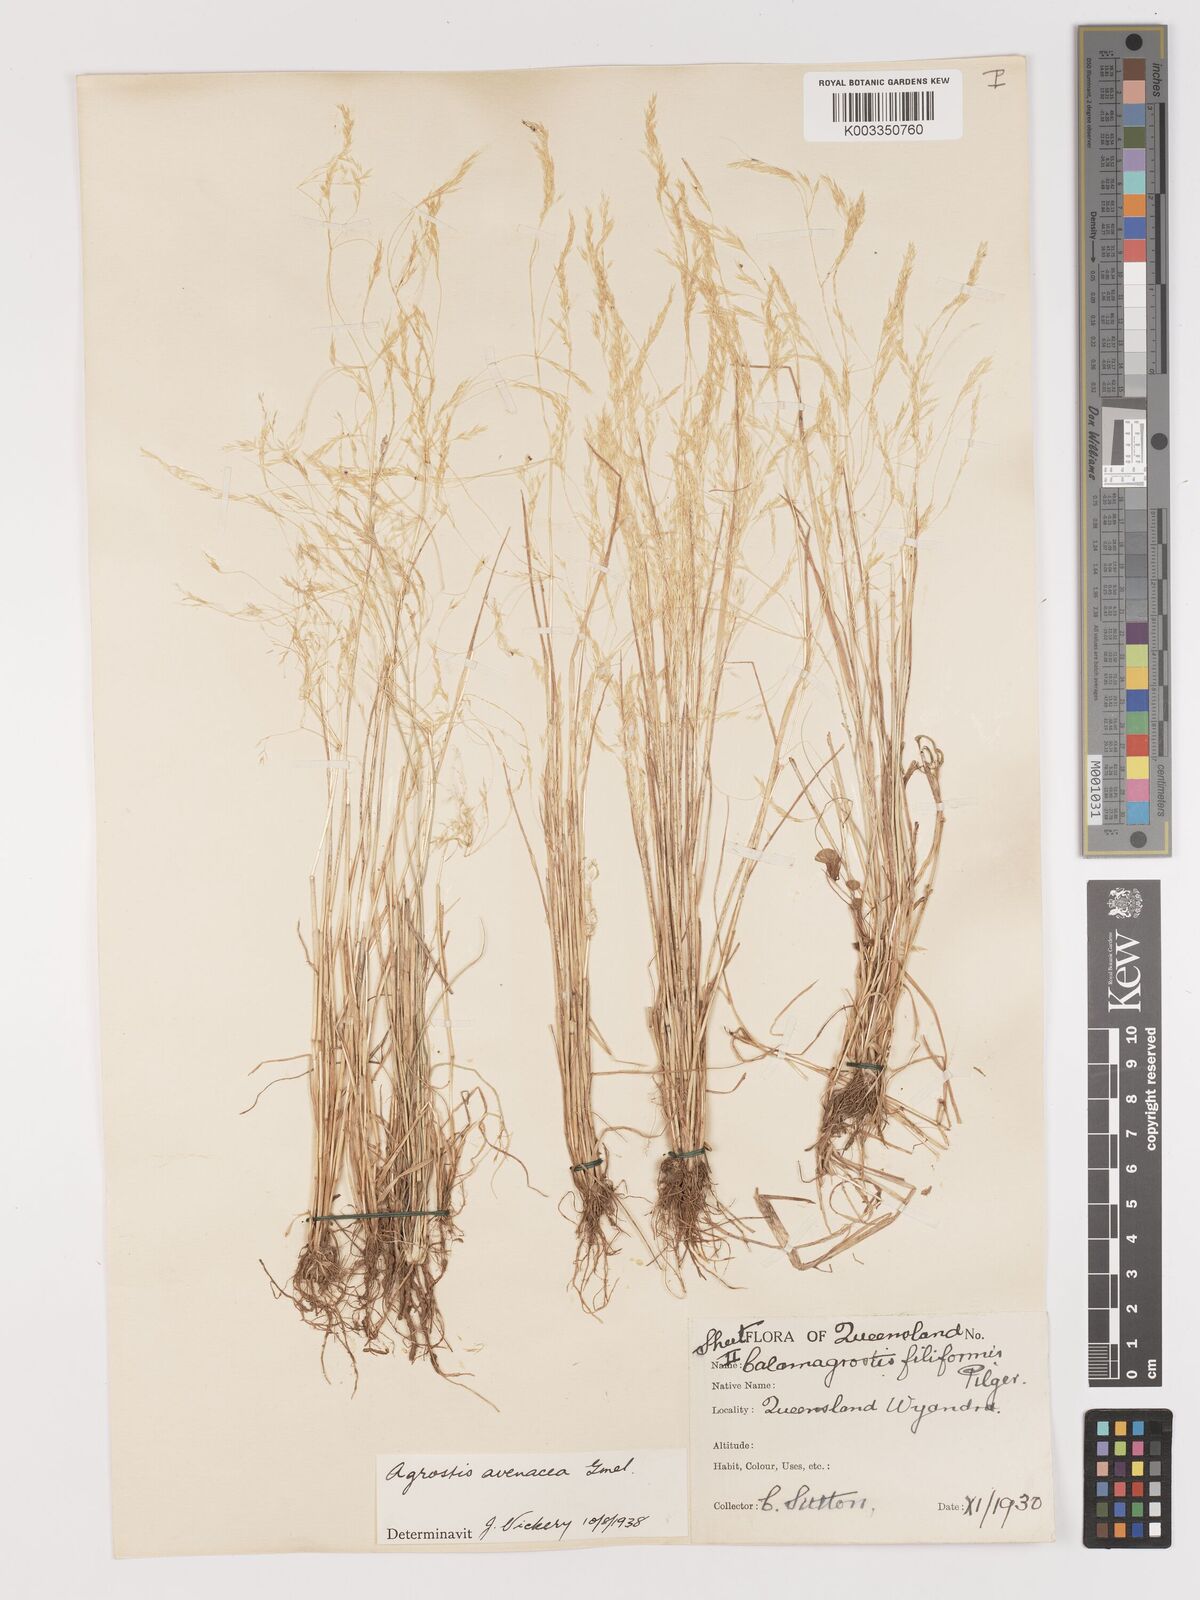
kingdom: Plantae
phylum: Tracheophyta
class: Liliopsida
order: Poales
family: Poaceae
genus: Lachnagrostis
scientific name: Lachnagrostis filiformis
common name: Bentgrass
